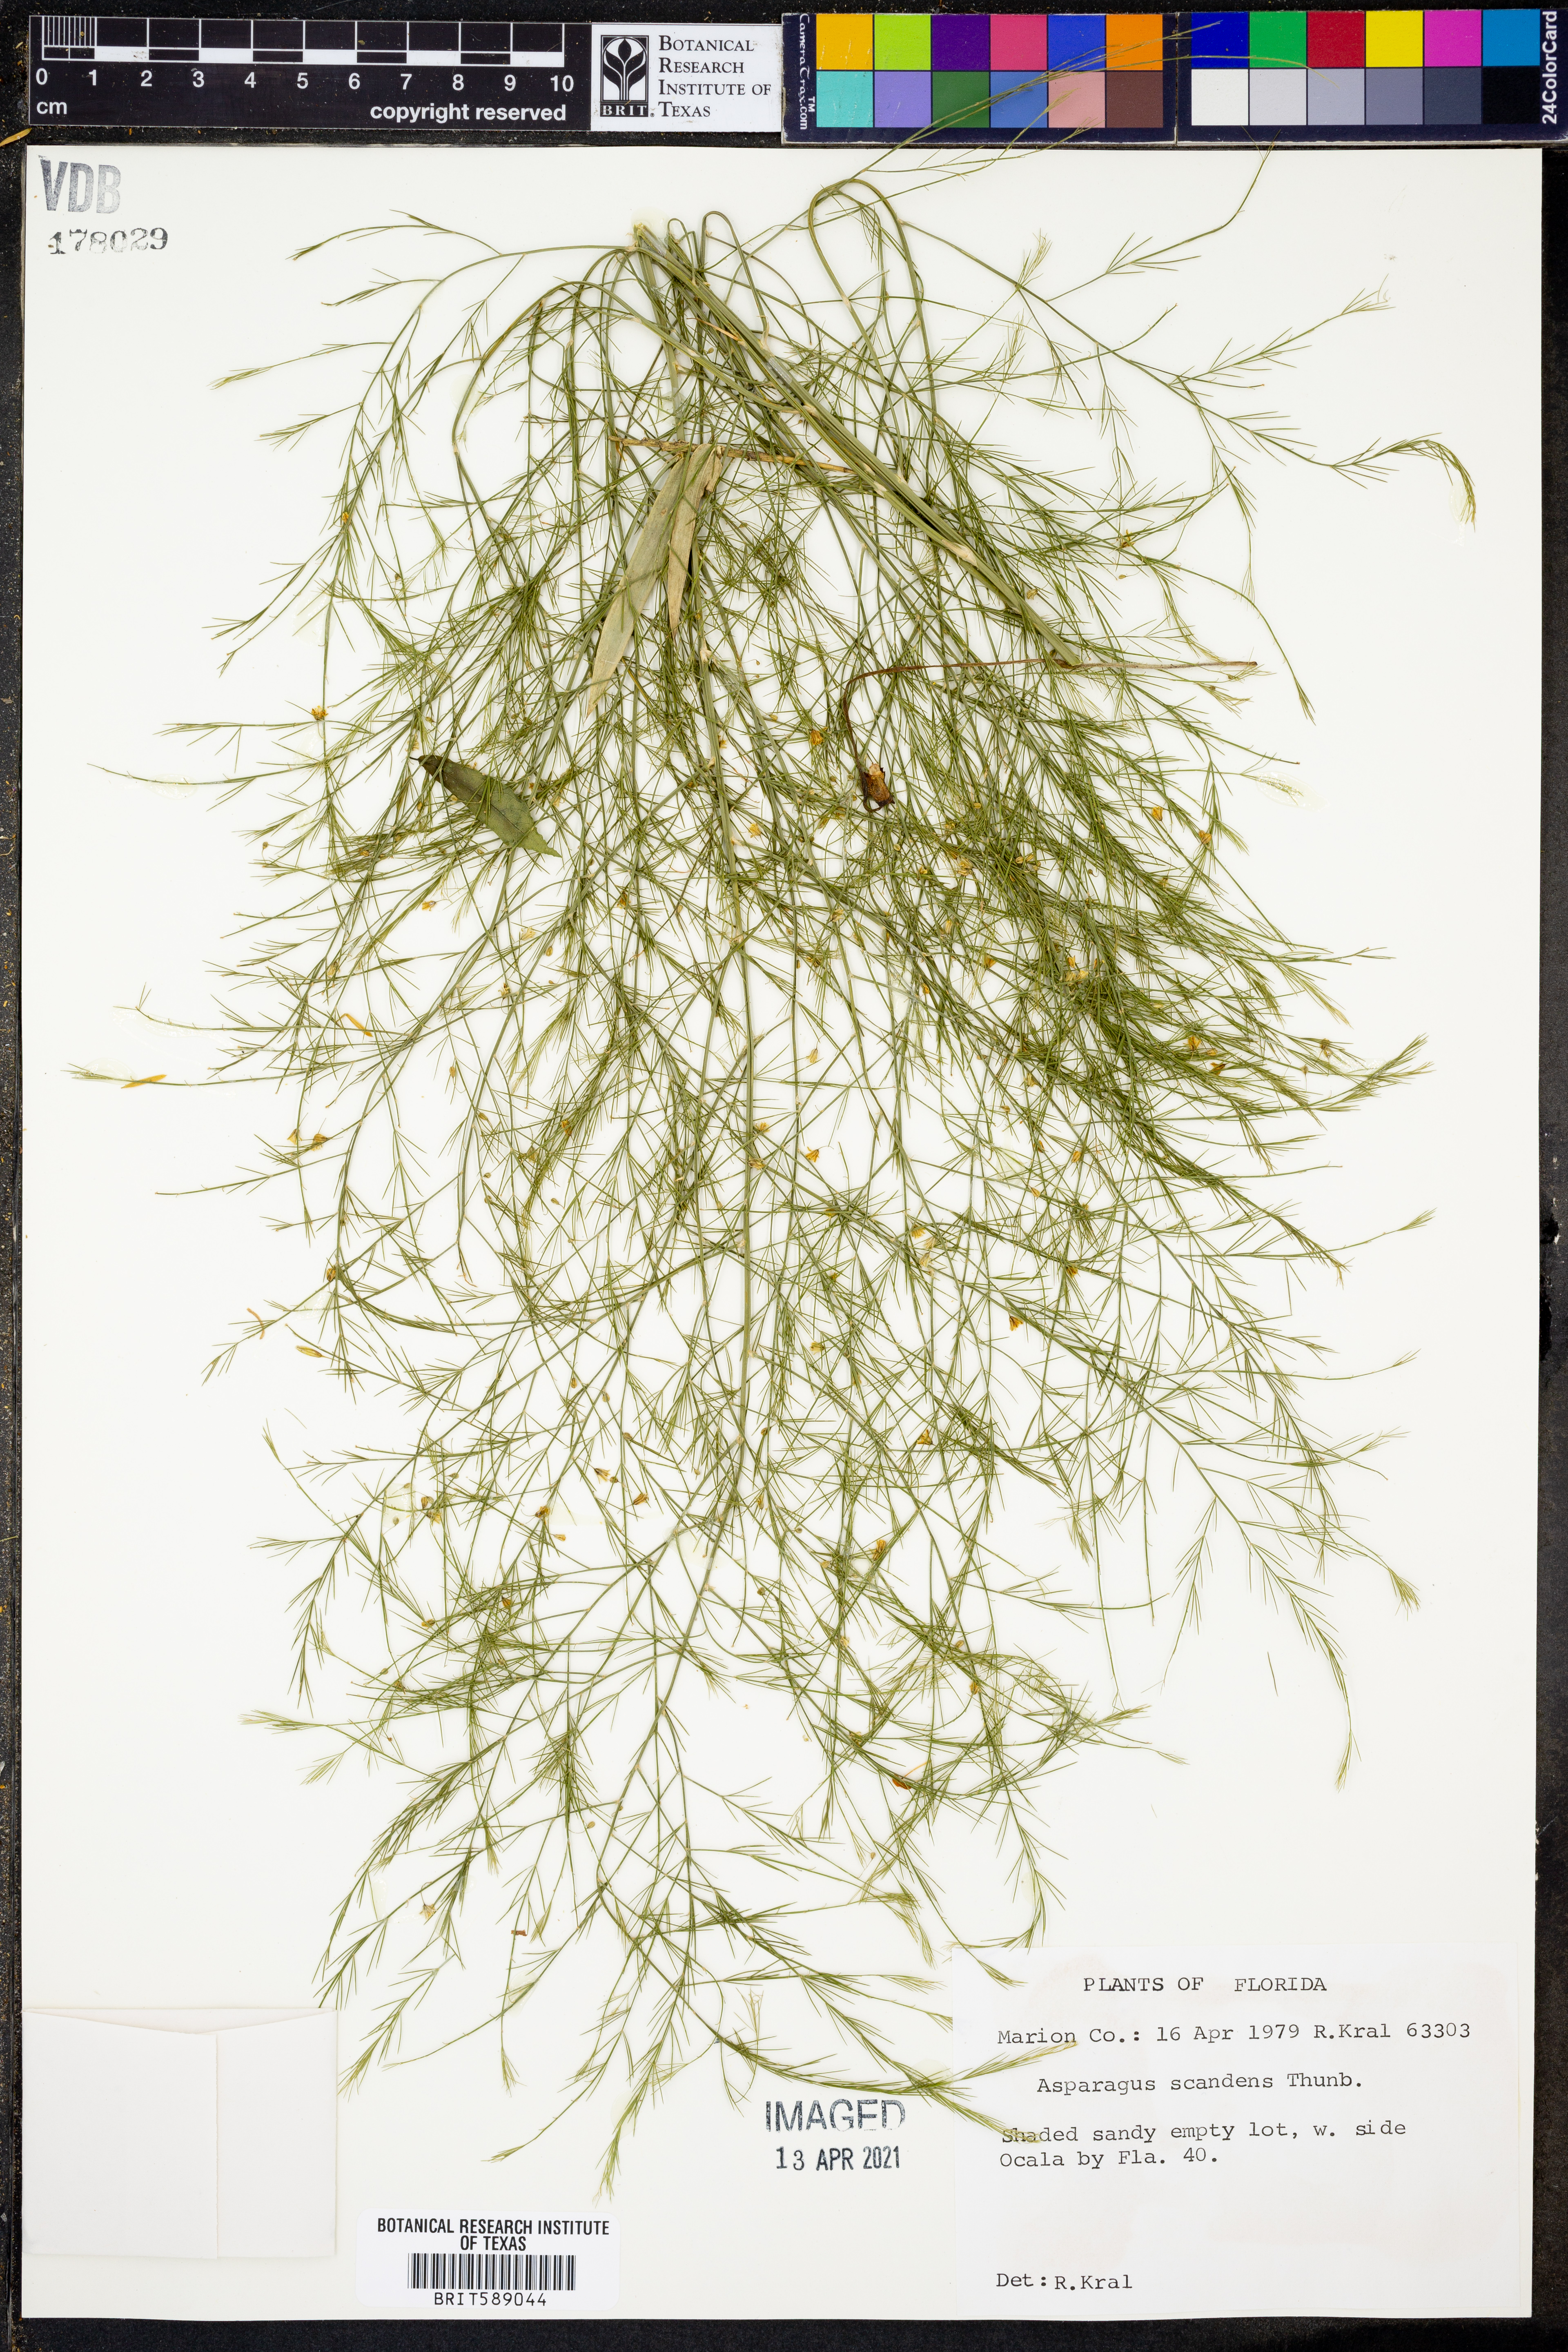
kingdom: Plantae
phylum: Tracheophyta
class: Liliopsida
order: Asparagales
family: Asparagaceae
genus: Asparagus
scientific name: Asparagus verticillatus
